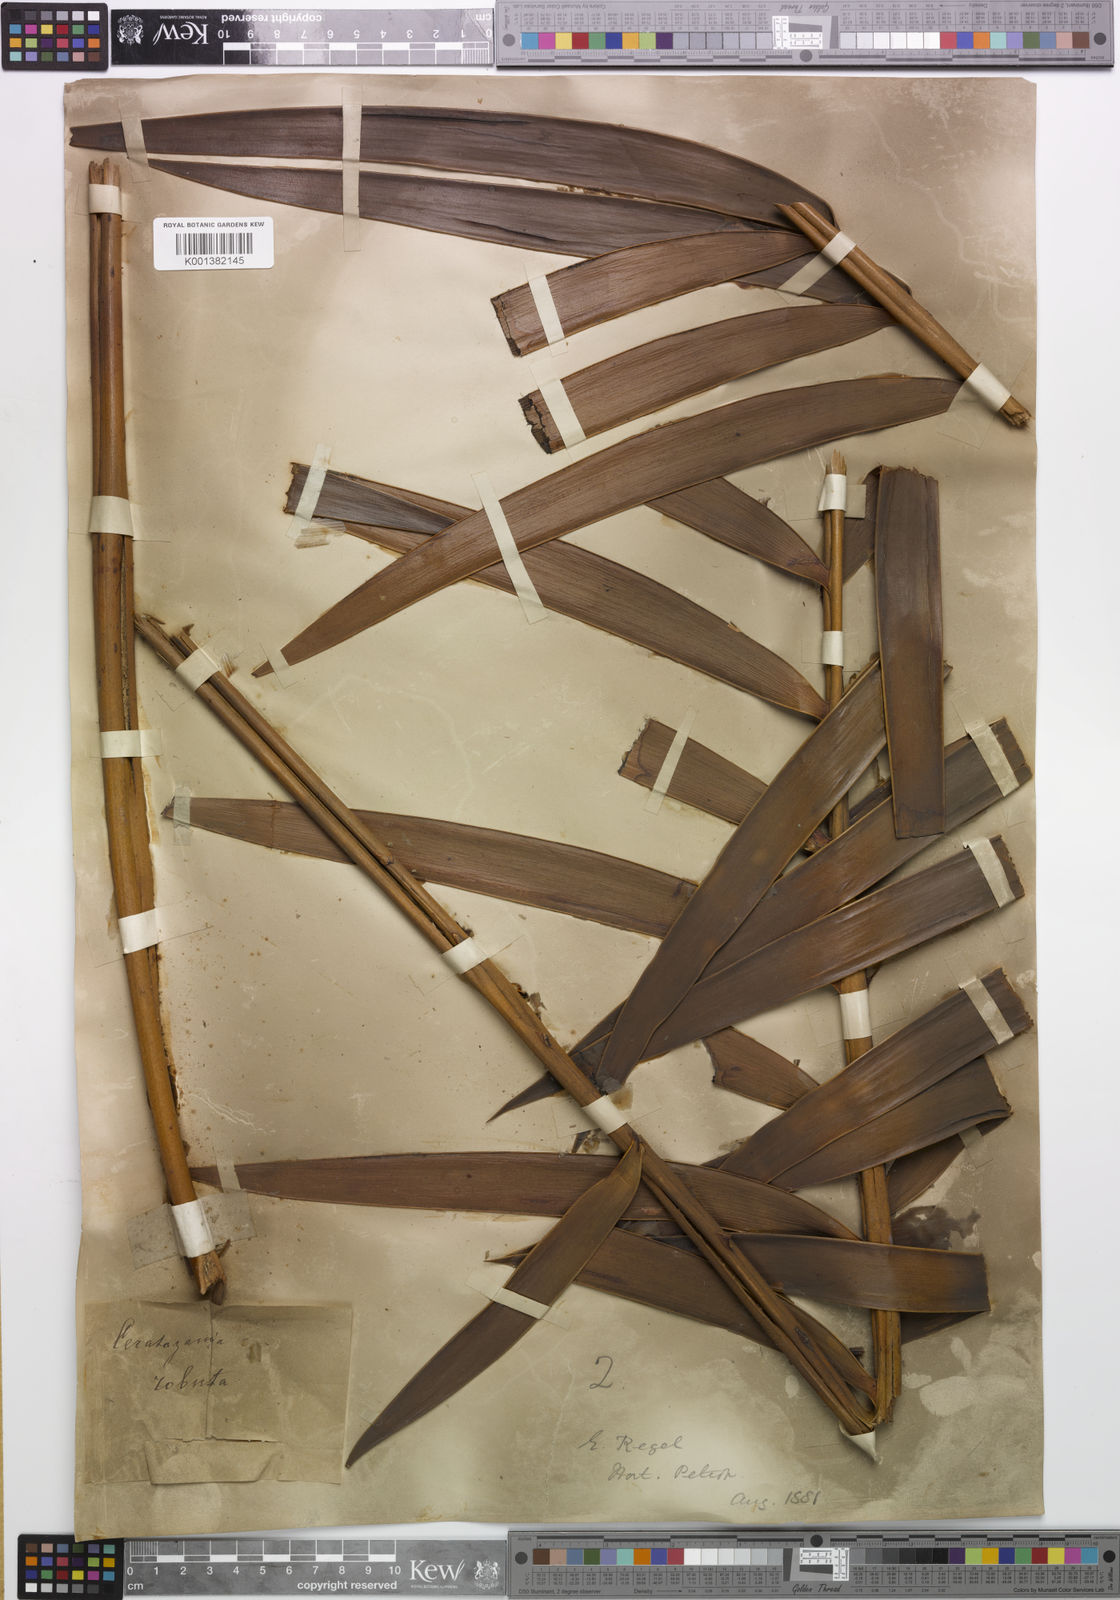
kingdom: Plantae
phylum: Tracheophyta
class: Cycadopsida
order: Cycadales
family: Zamiaceae
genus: Ceratozamia
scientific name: Ceratozamia mexicana
